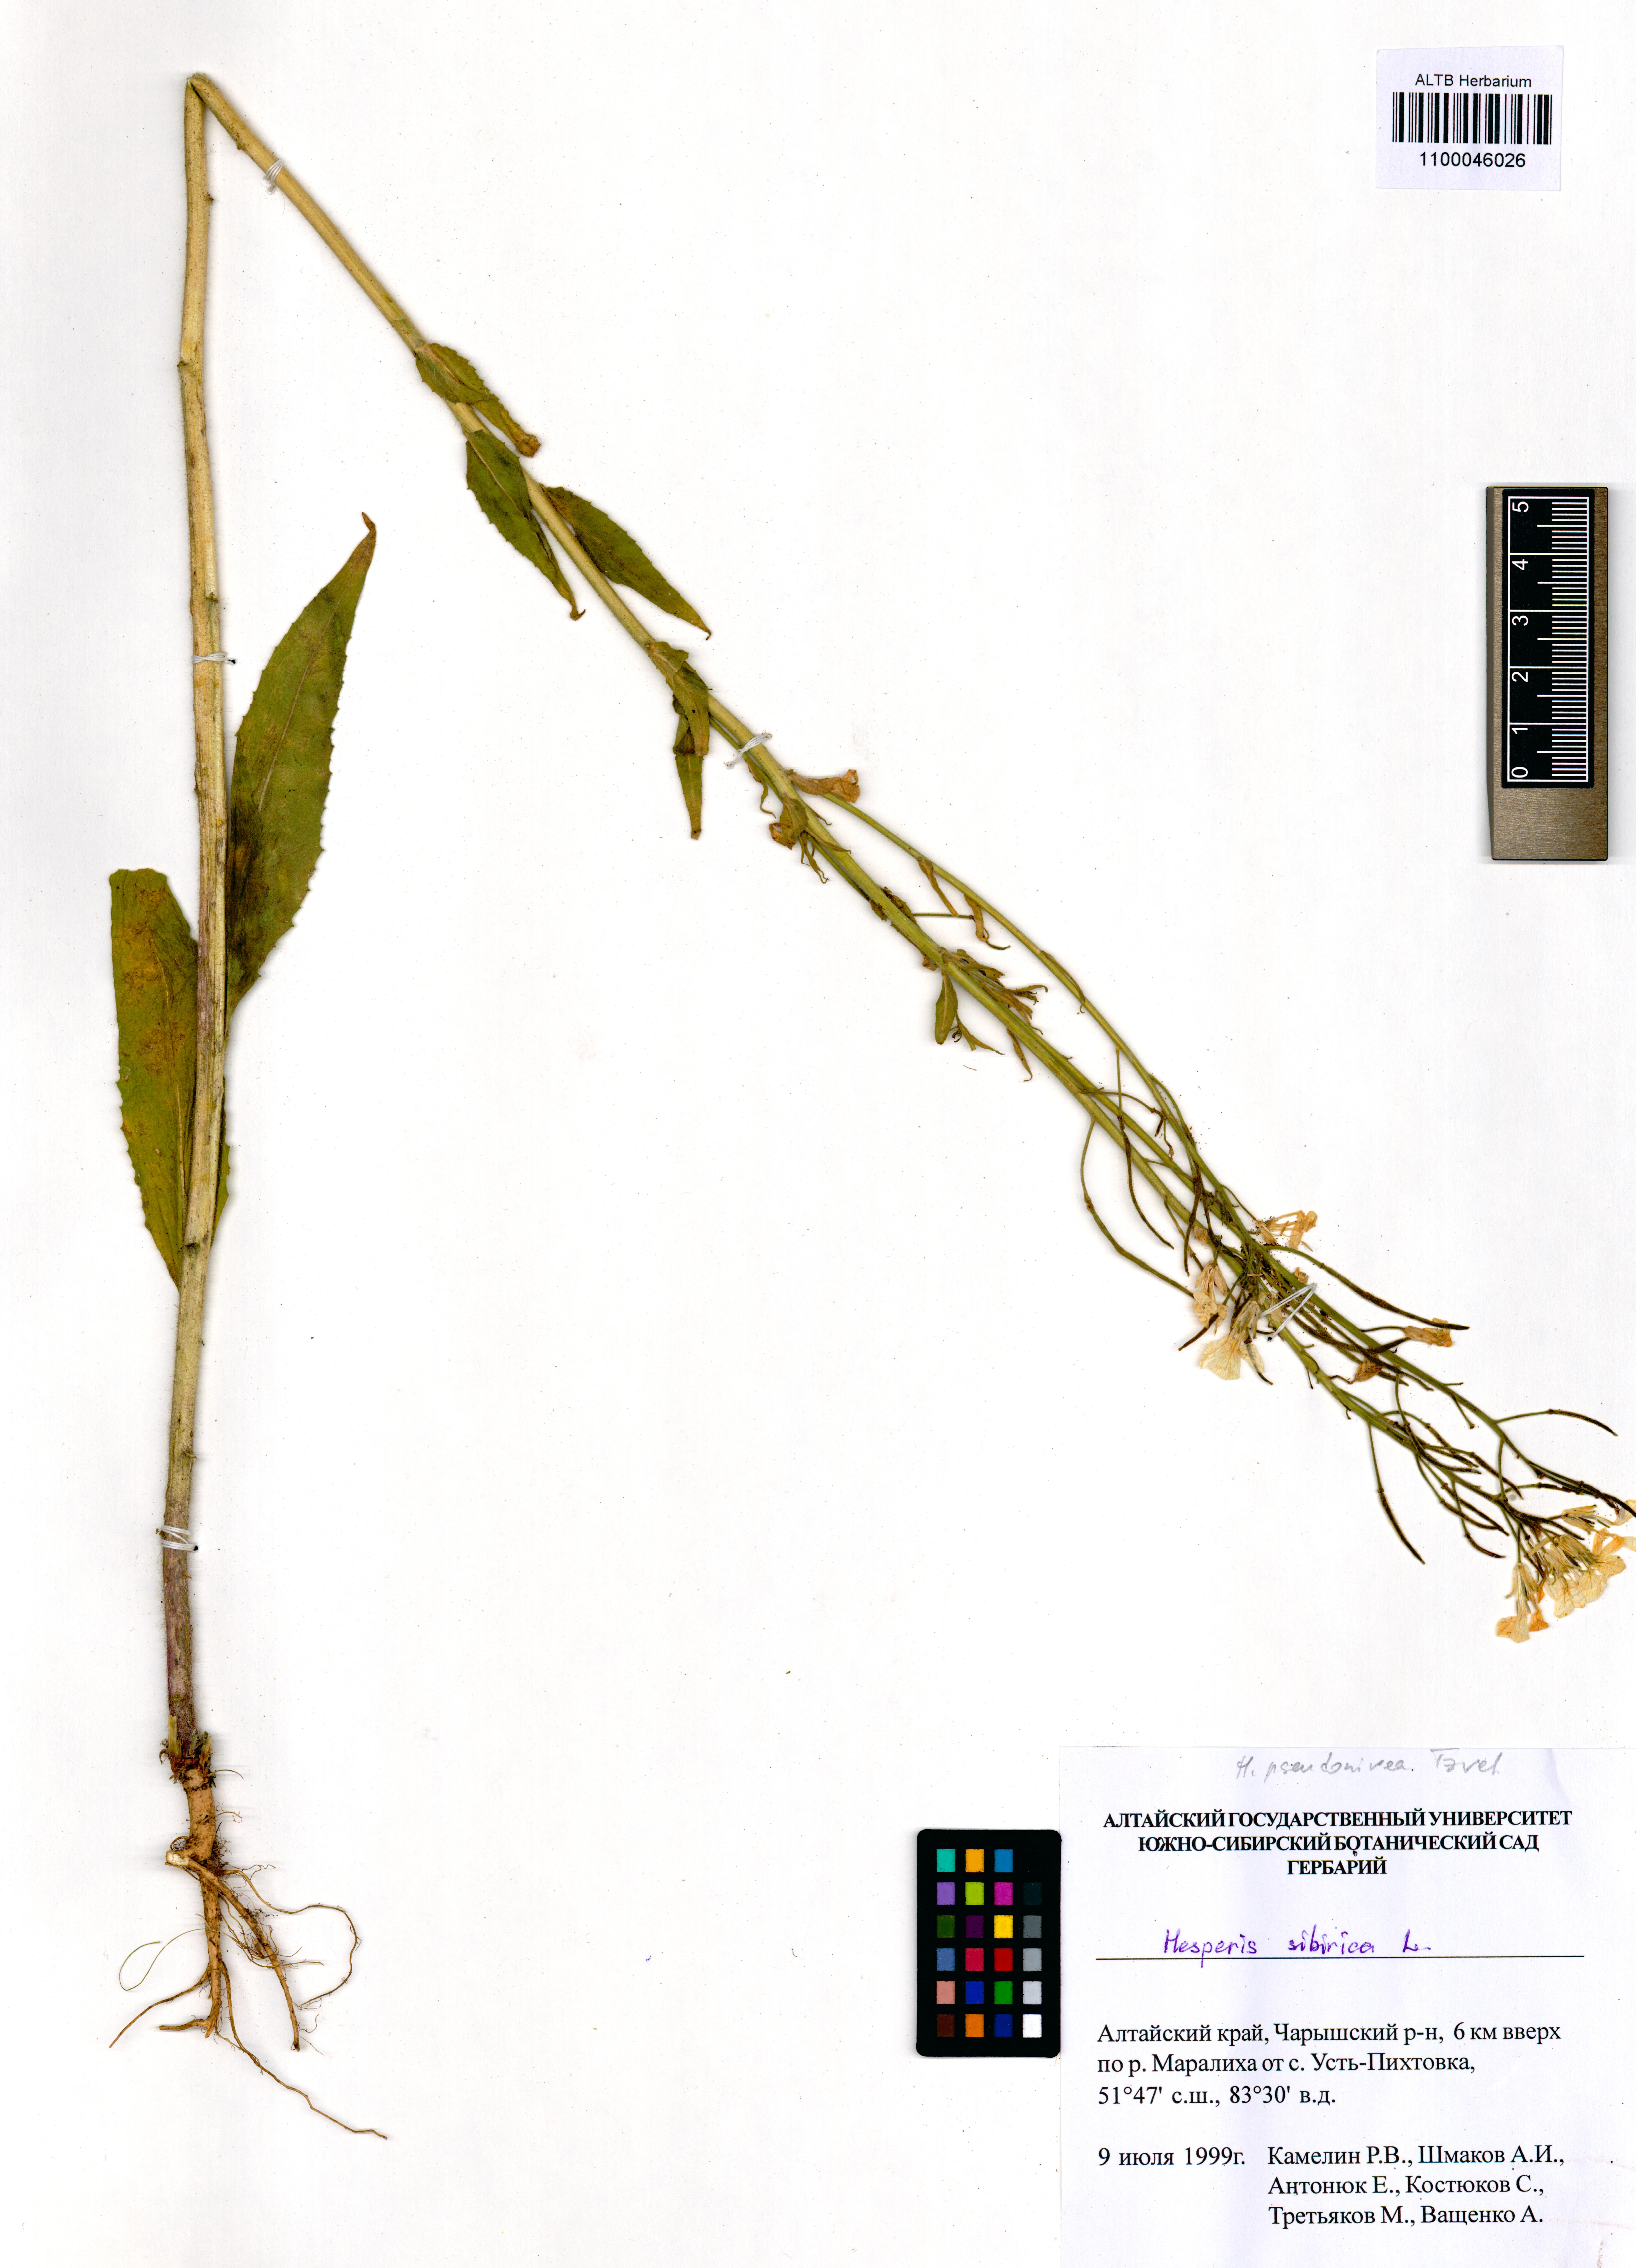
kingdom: Plantae
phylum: Tracheophyta
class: Magnoliopsida
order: Brassicales
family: Brassicaceae
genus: Hesperis
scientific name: Hesperis sibirica
